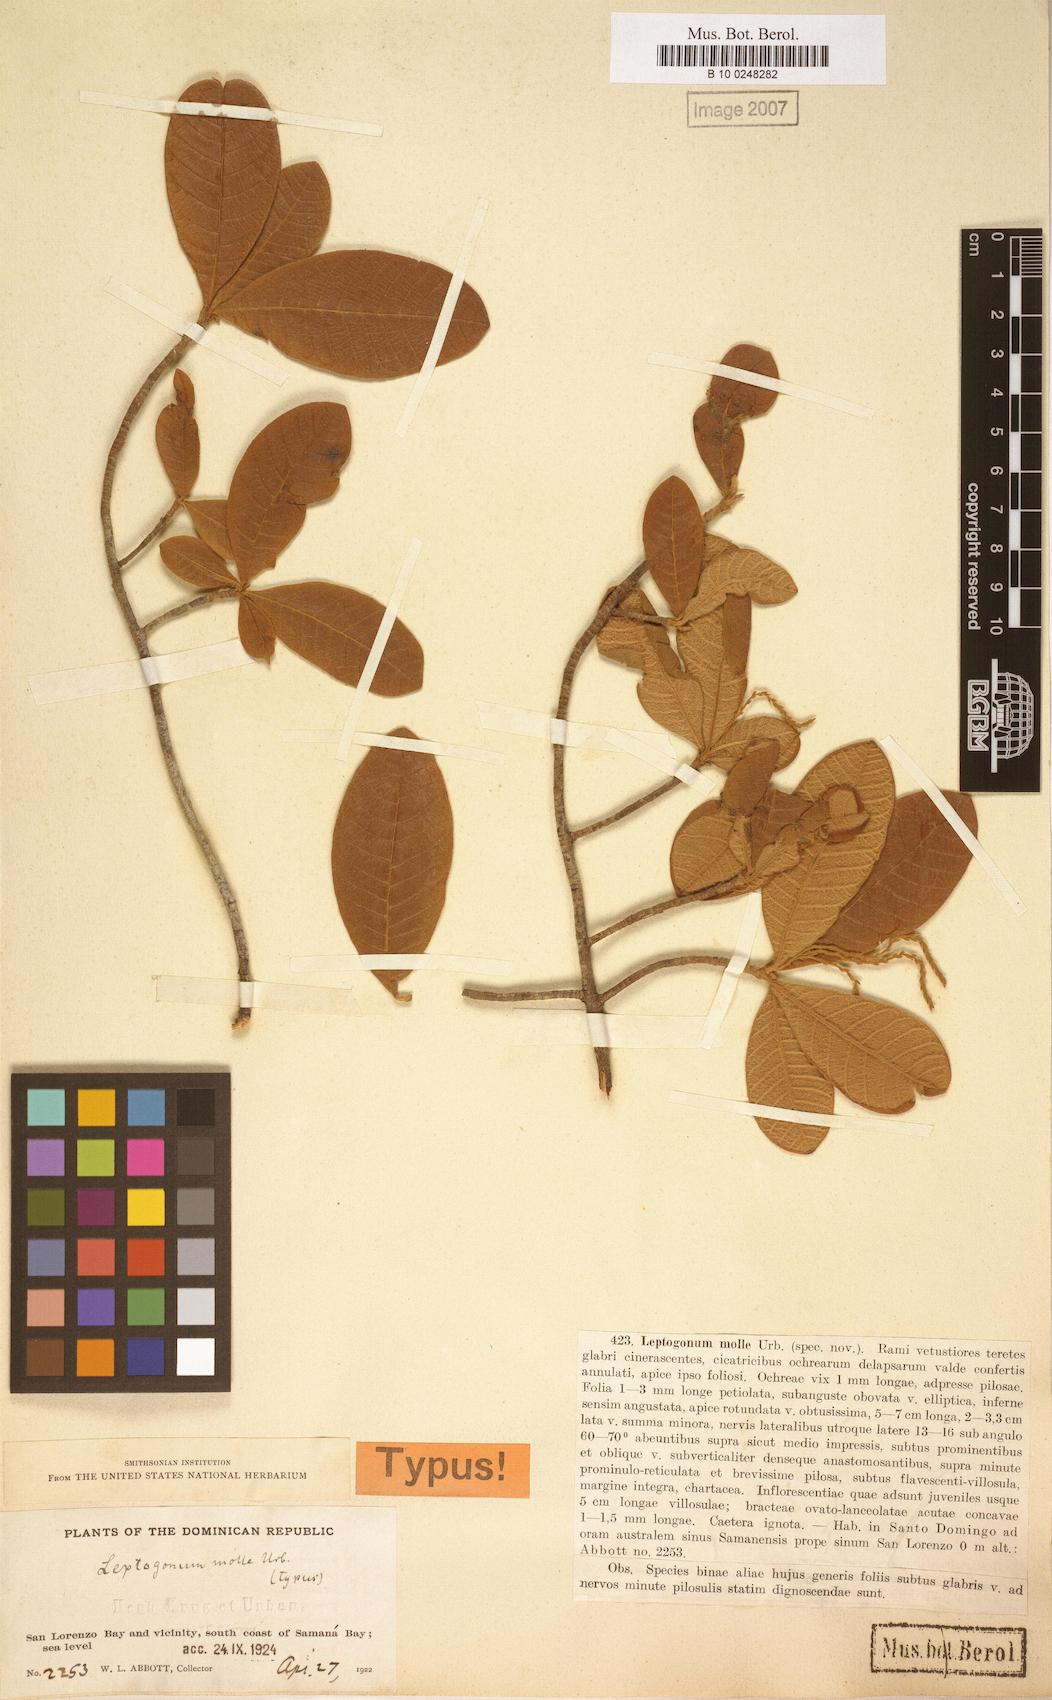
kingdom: Plantae
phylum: Tracheophyta
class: Magnoliopsida
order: Caryophyllales
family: Polygonaceae
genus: Leptogonum
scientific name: Leptogonum domingensis
